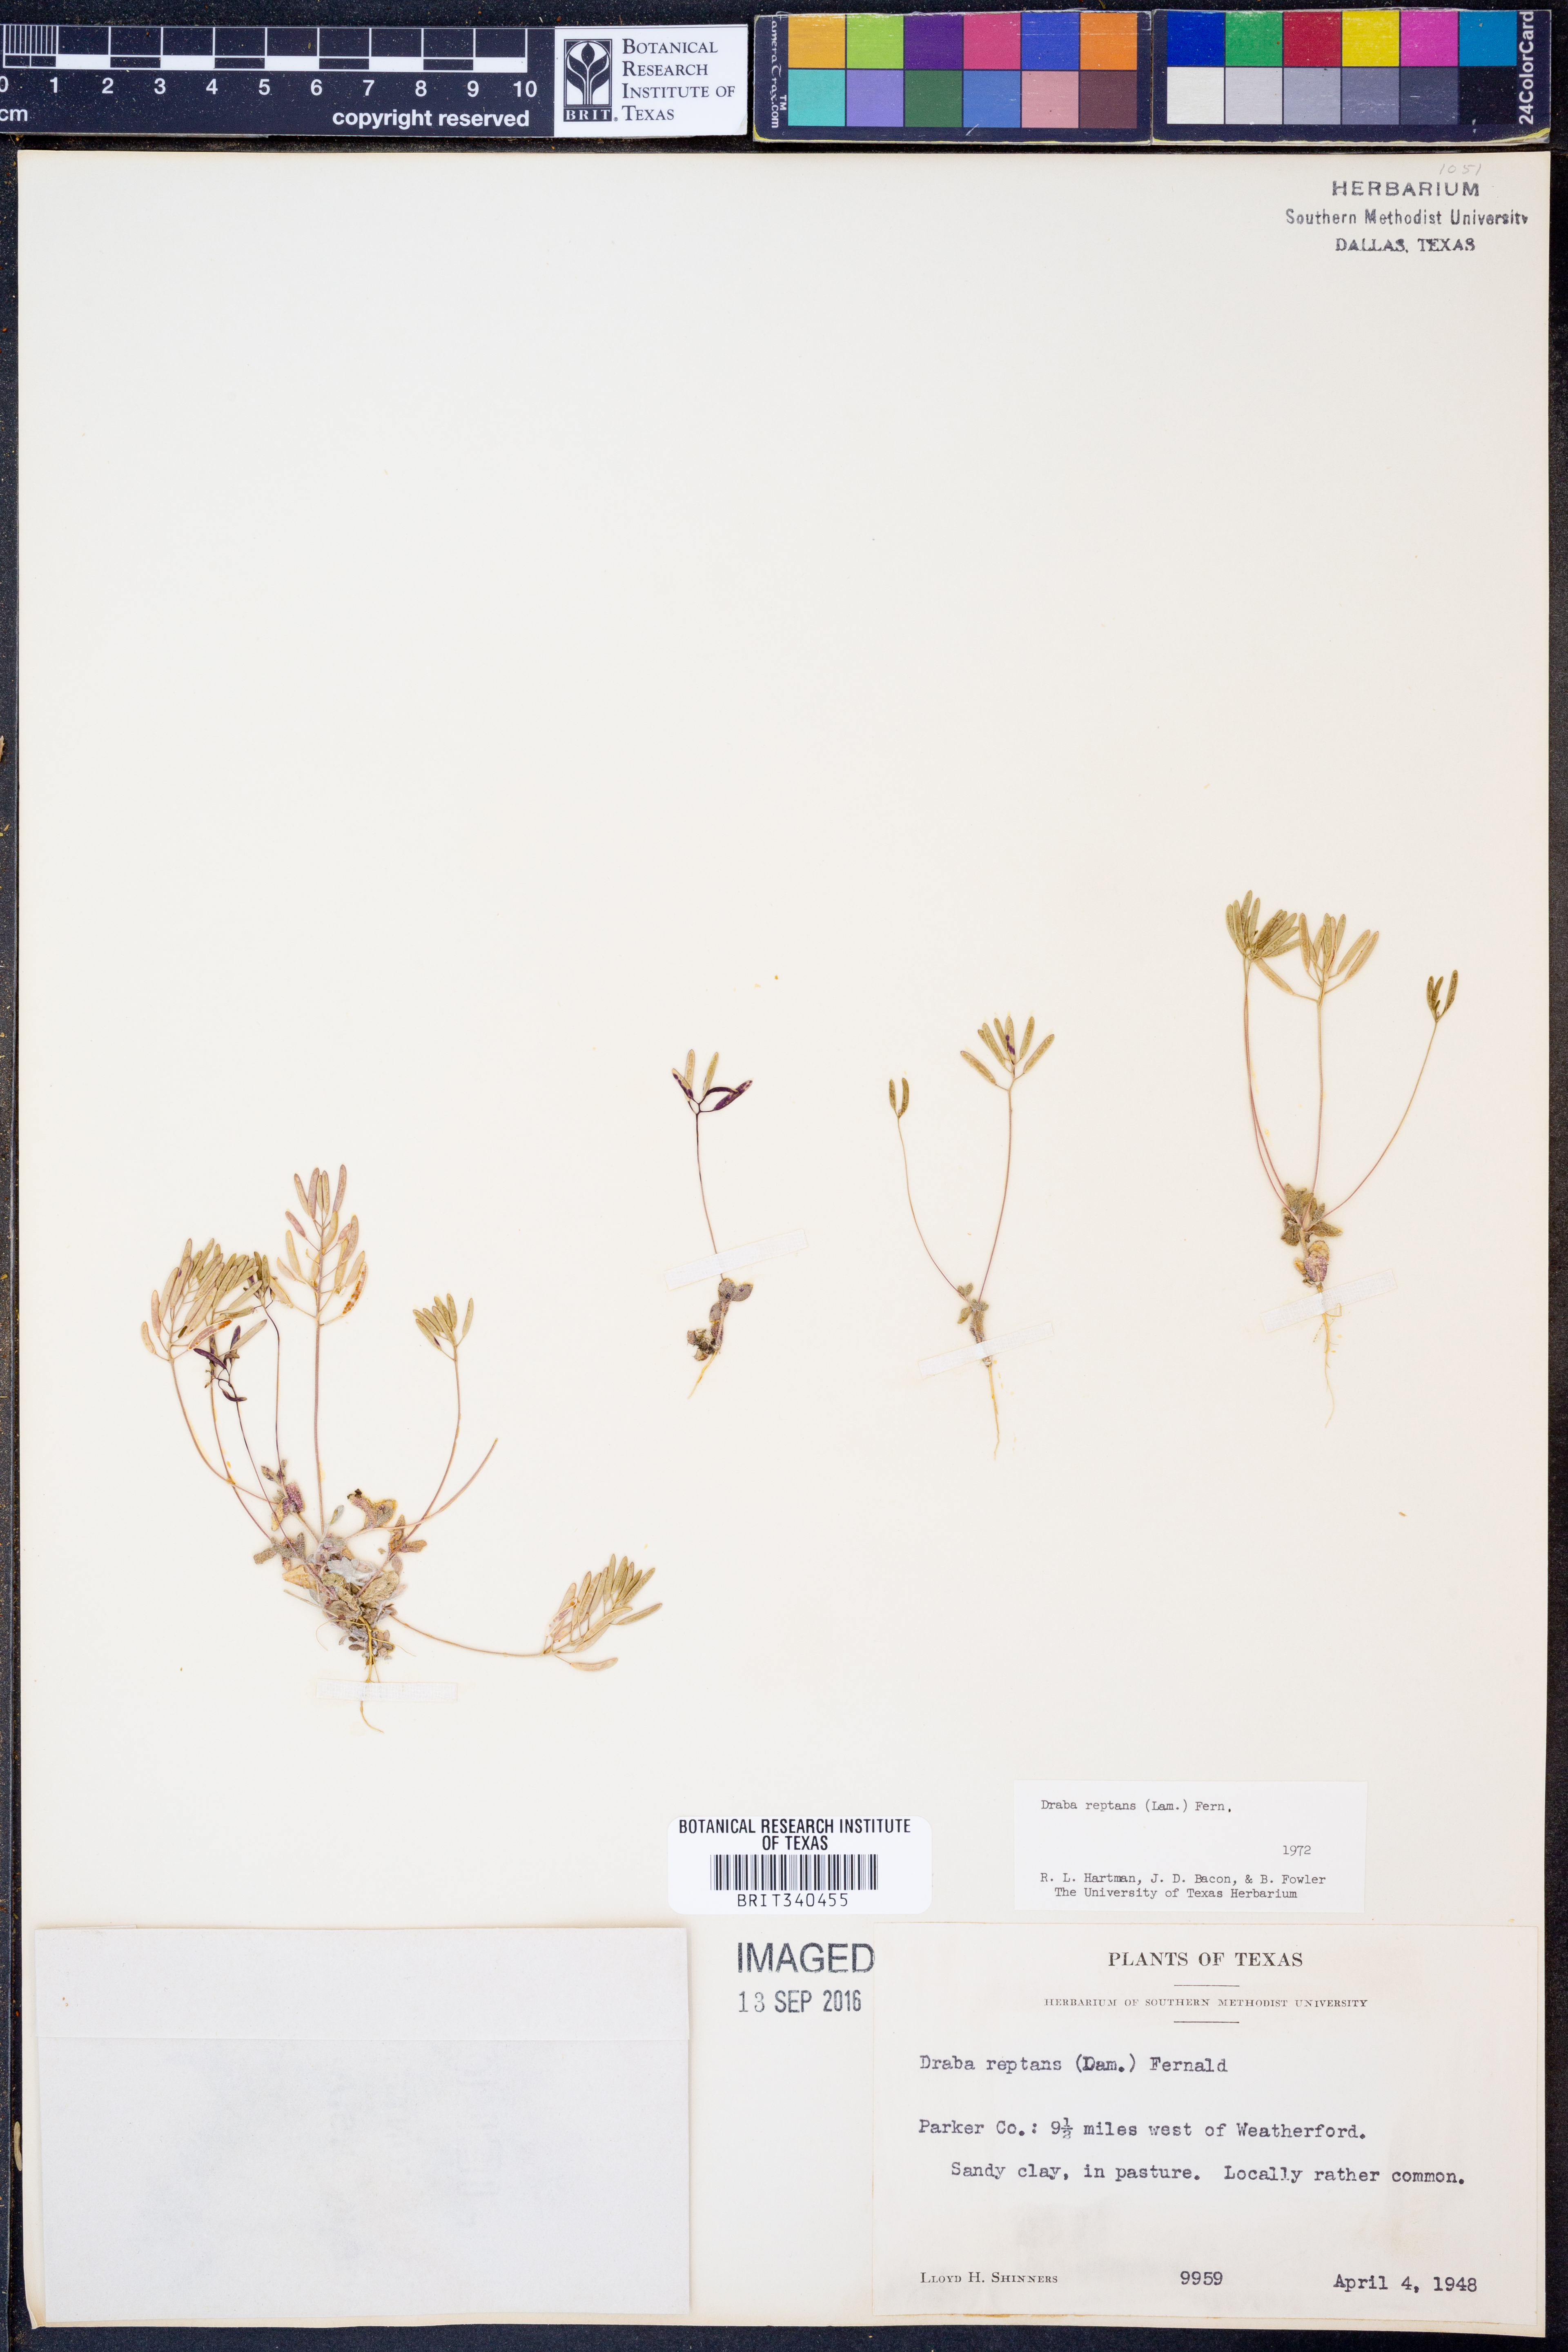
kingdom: Plantae
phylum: Tracheophyta
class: Magnoliopsida
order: Brassicales
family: Brassicaceae
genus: Tomostima
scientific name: Tomostima reptans
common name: Carolina draba
